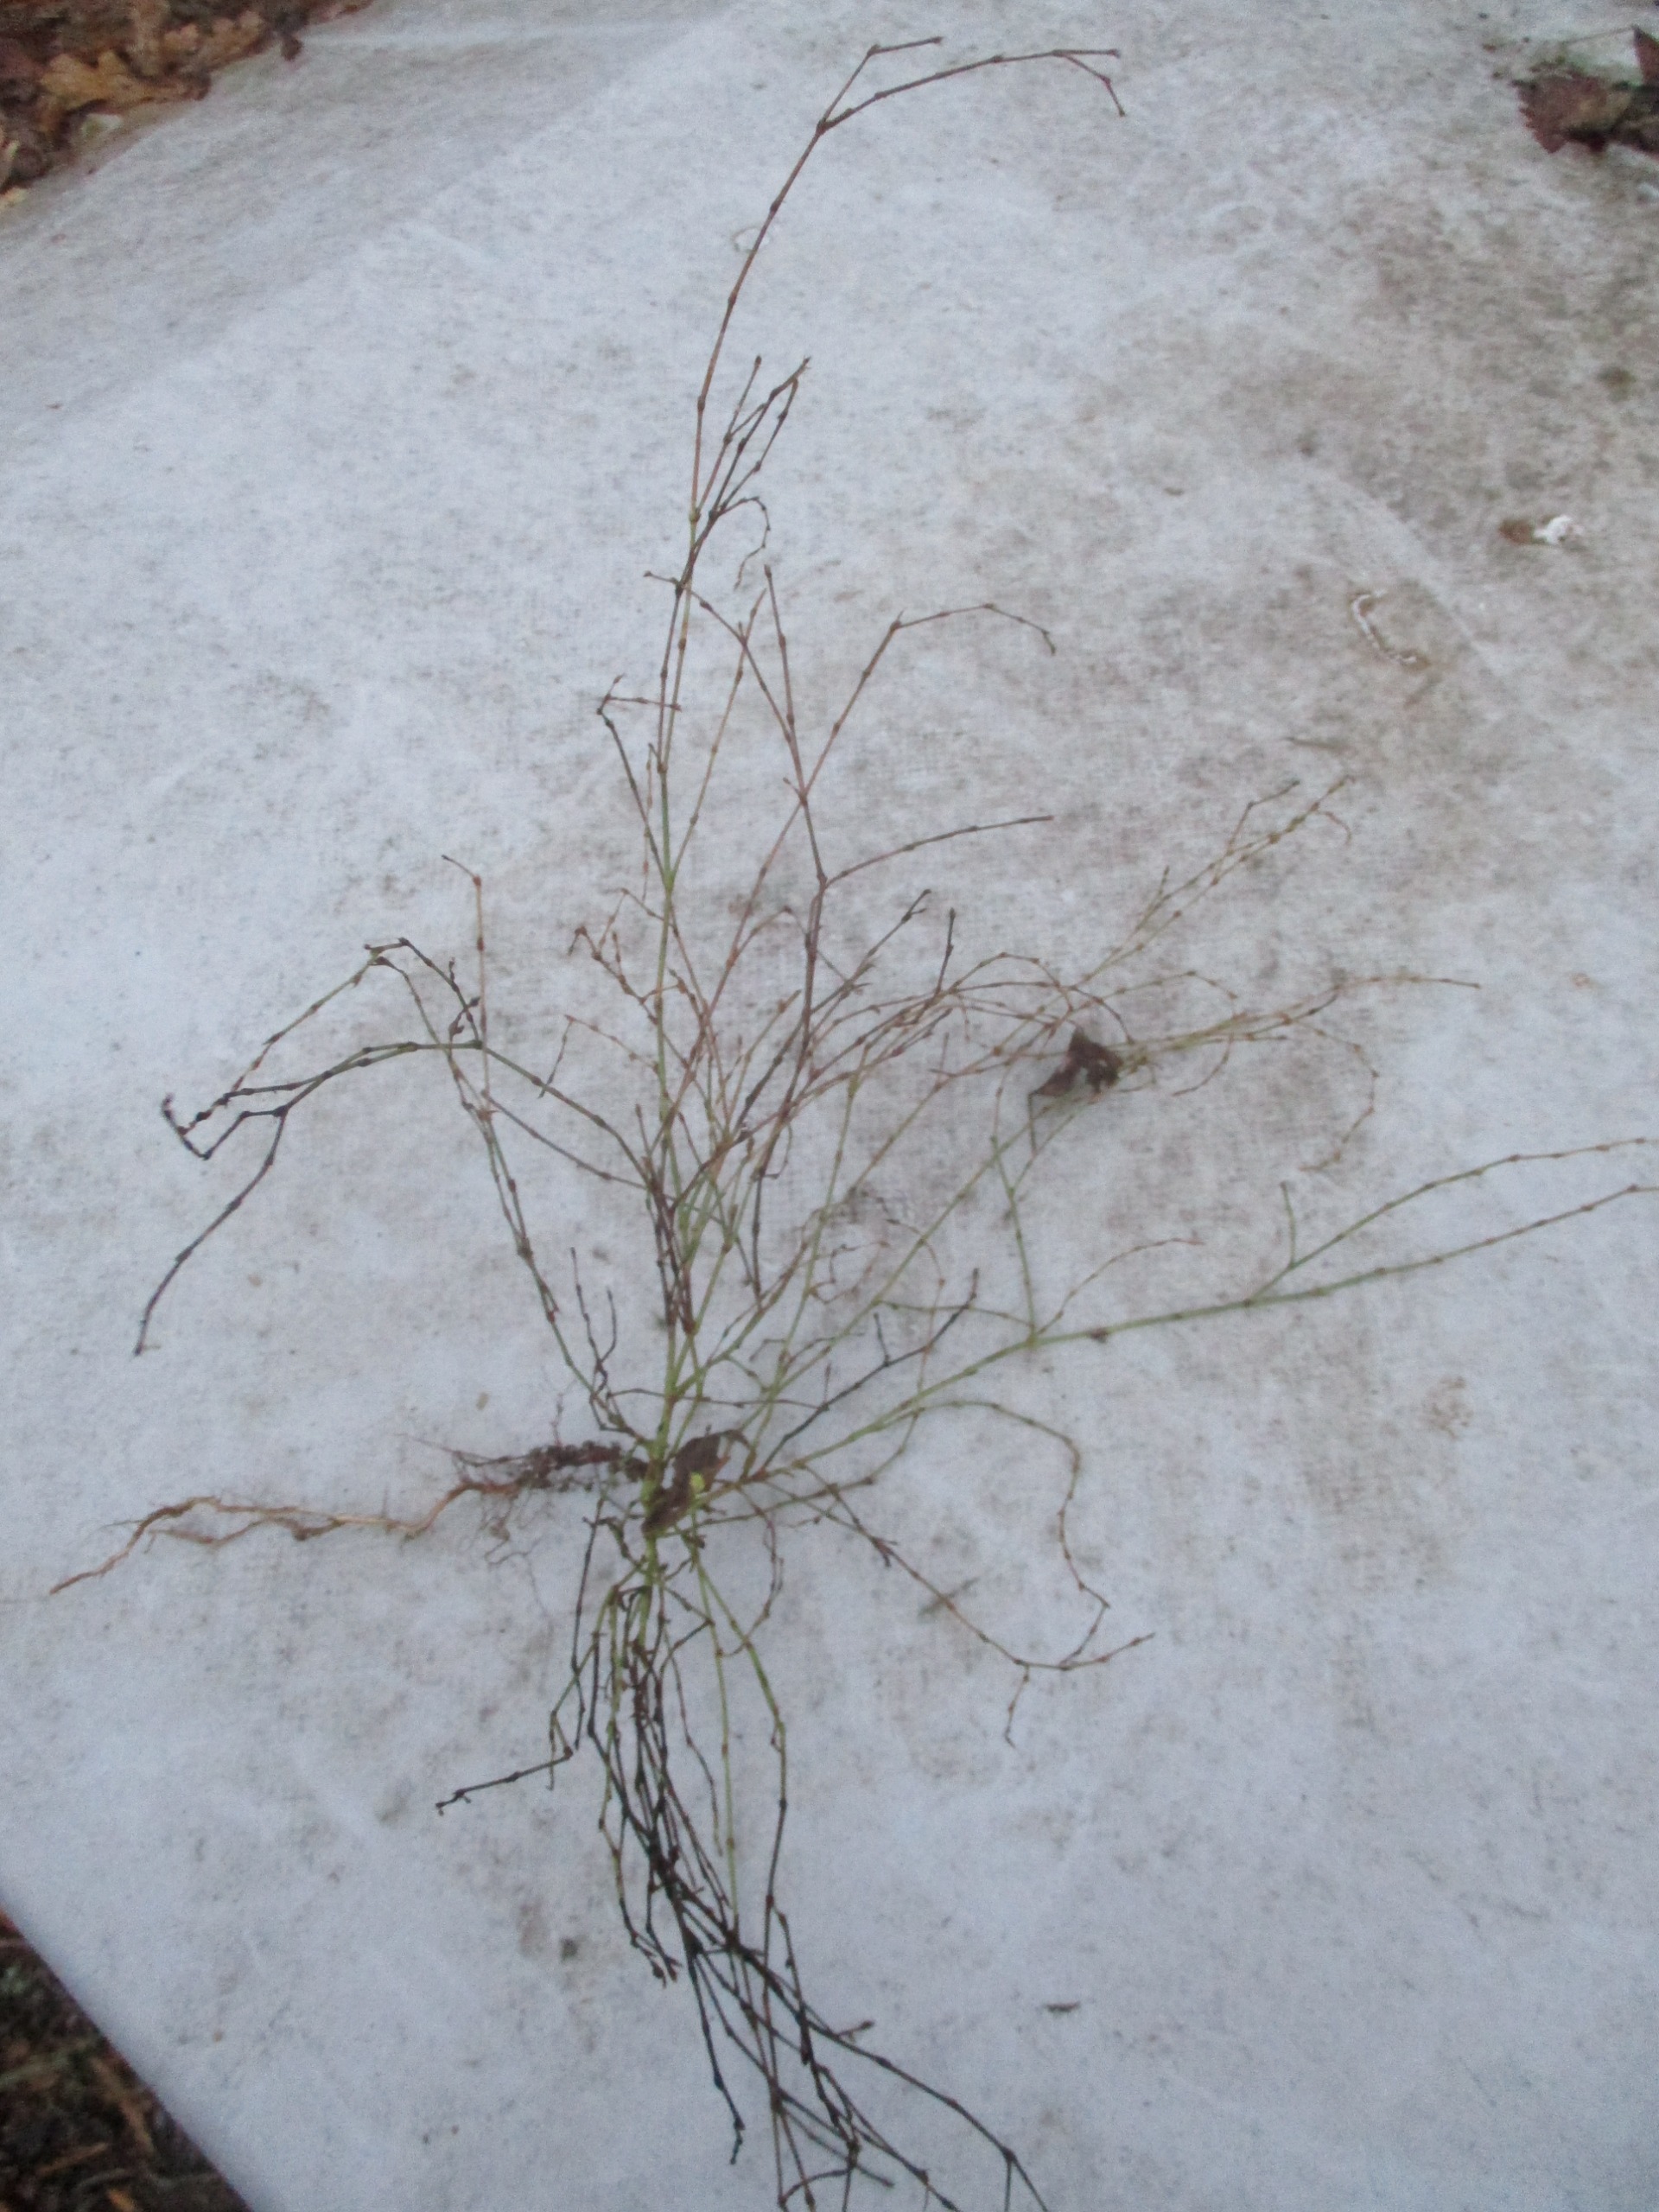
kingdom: Plantae
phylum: Tracheophyta
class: Magnoliopsida
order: Caryophyllales
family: Polygonaceae
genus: Polygonum
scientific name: Polygonum arenastrum
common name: Liggende vej-pileurt
